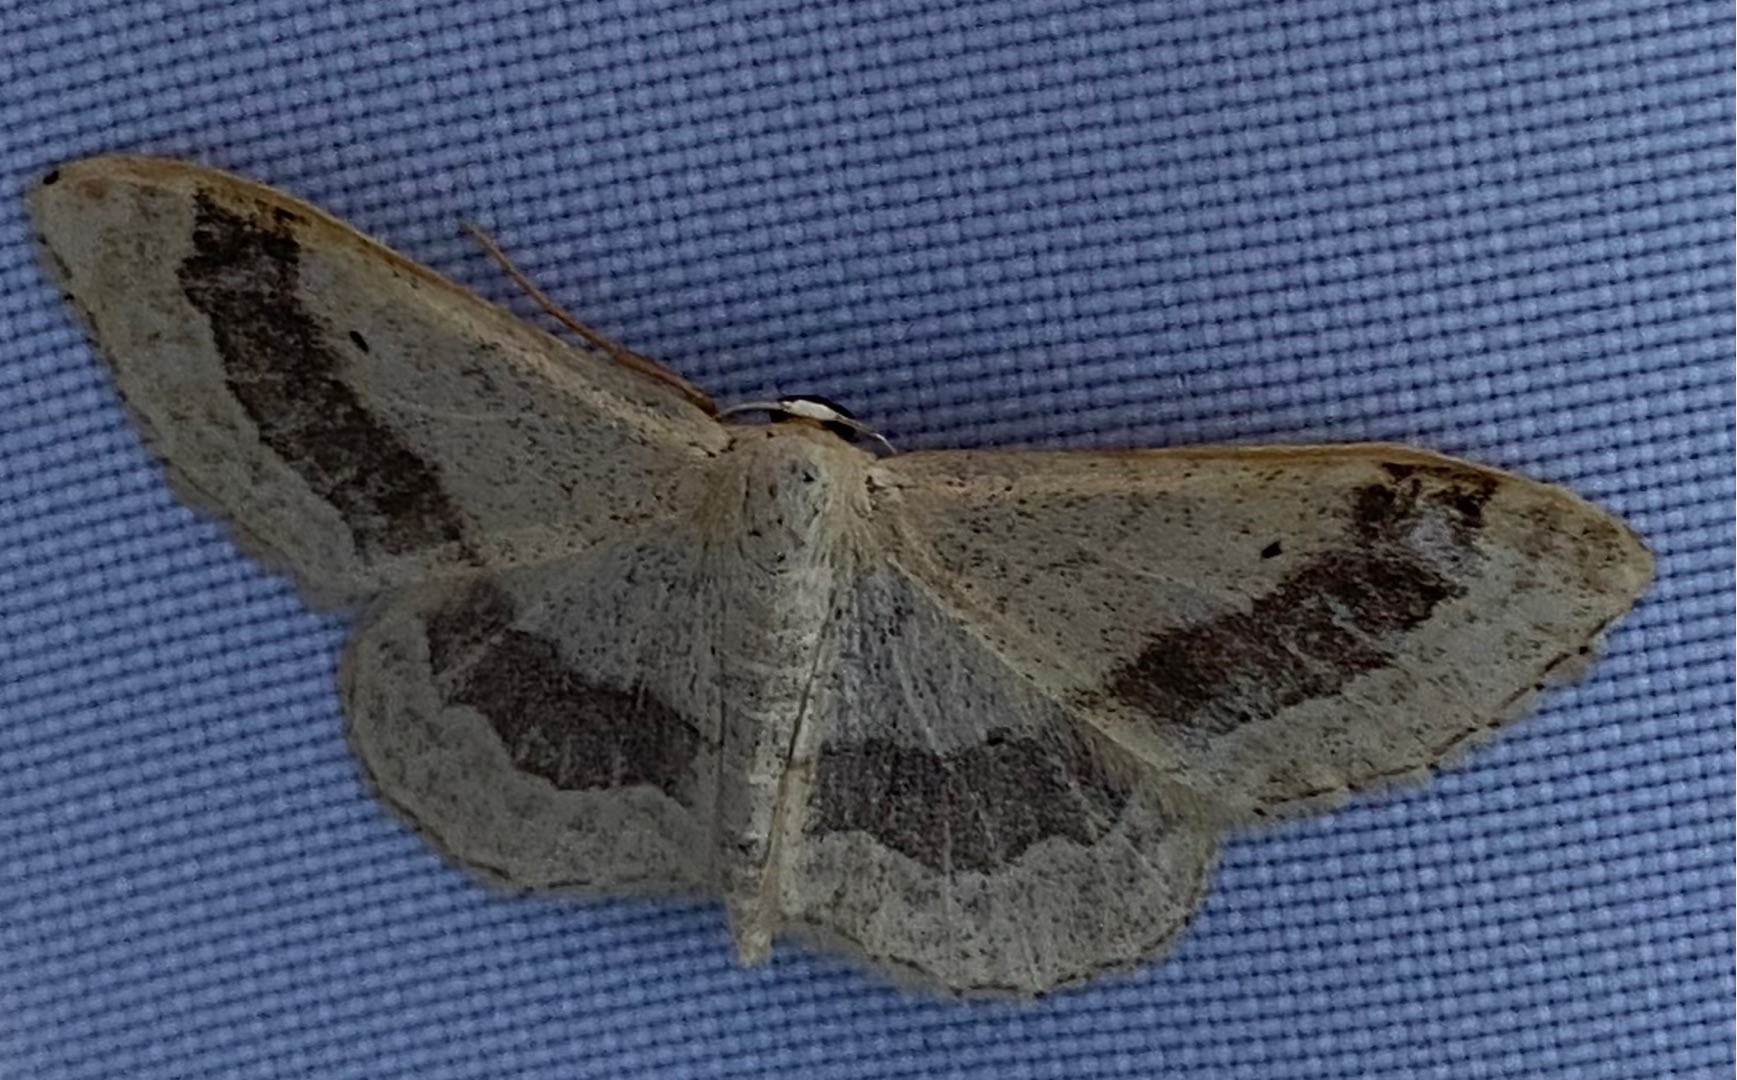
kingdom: Animalia
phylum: Arthropoda
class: Insecta
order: Lepidoptera
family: Geometridae
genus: Idaea
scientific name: Idaea aversata
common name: Vinkelstreget løvmåler
